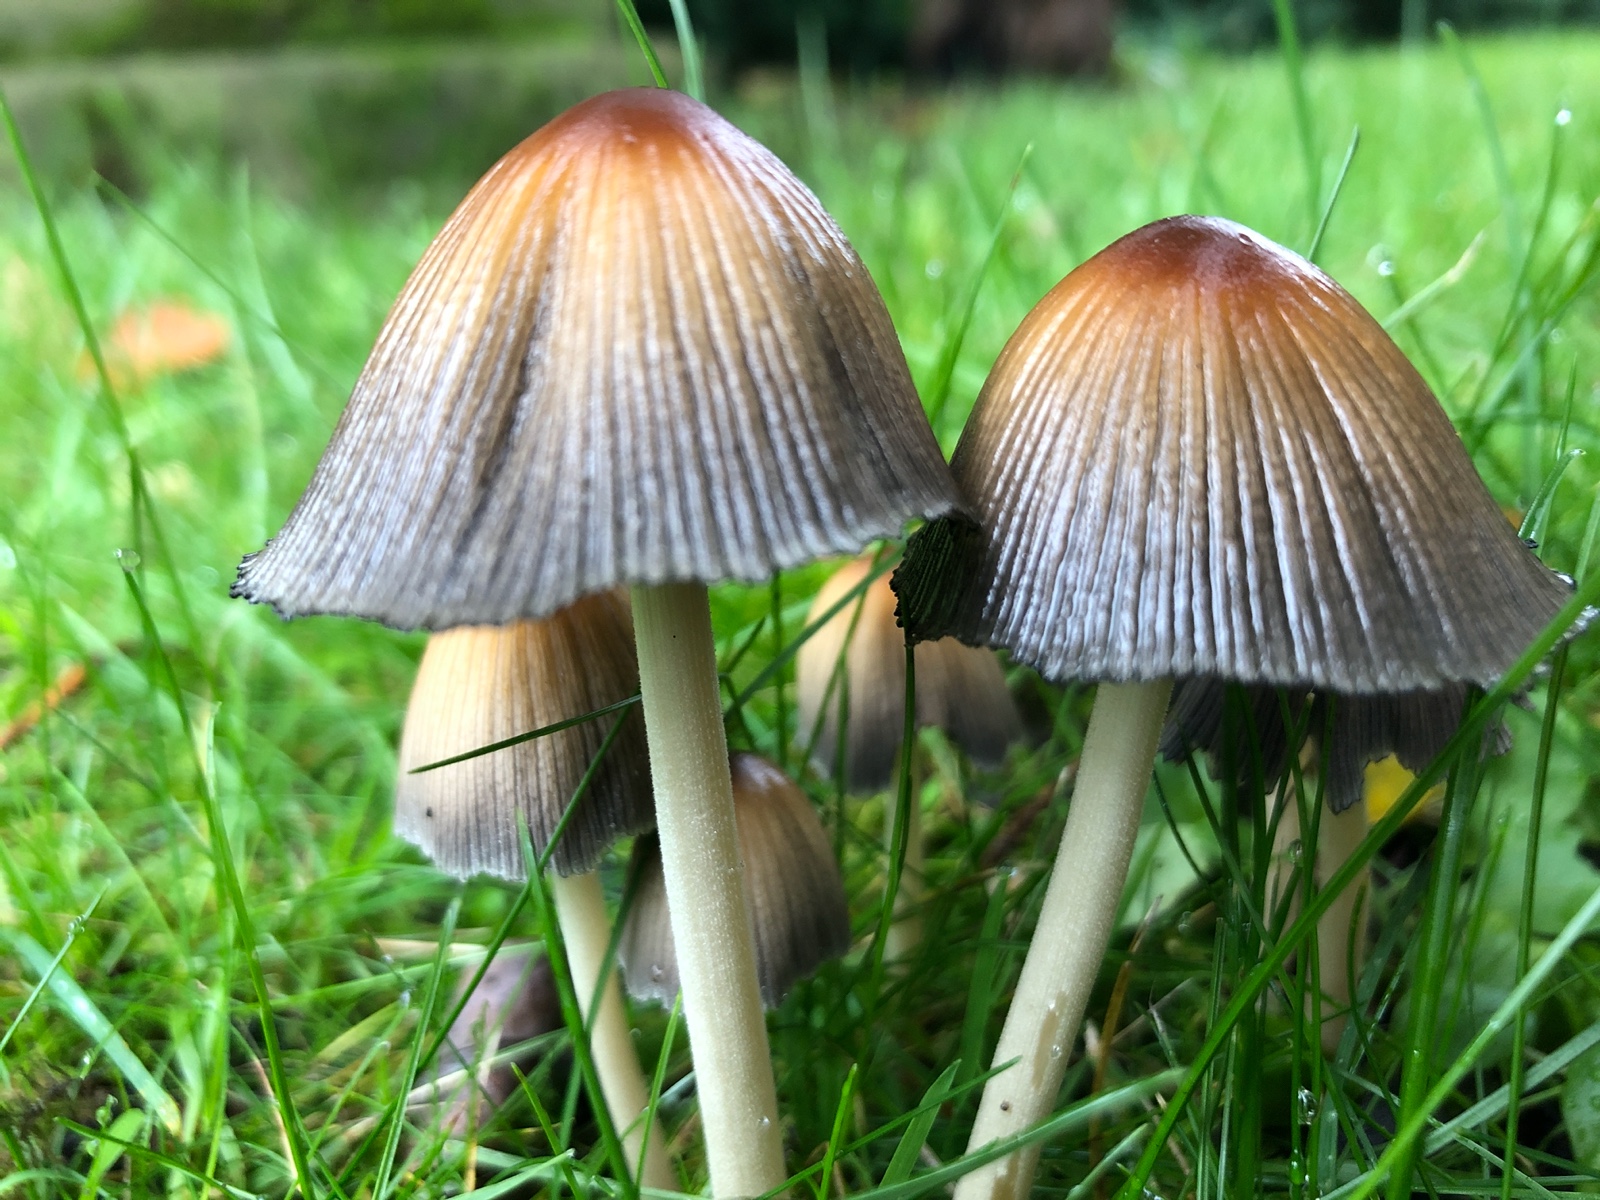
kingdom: Fungi
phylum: Basidiomycota
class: Agaricomycetes
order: Agaricales
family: Psathyrellaceae
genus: Coprinellus
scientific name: Coprinellus micaceus
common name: glimmer-blækhat
